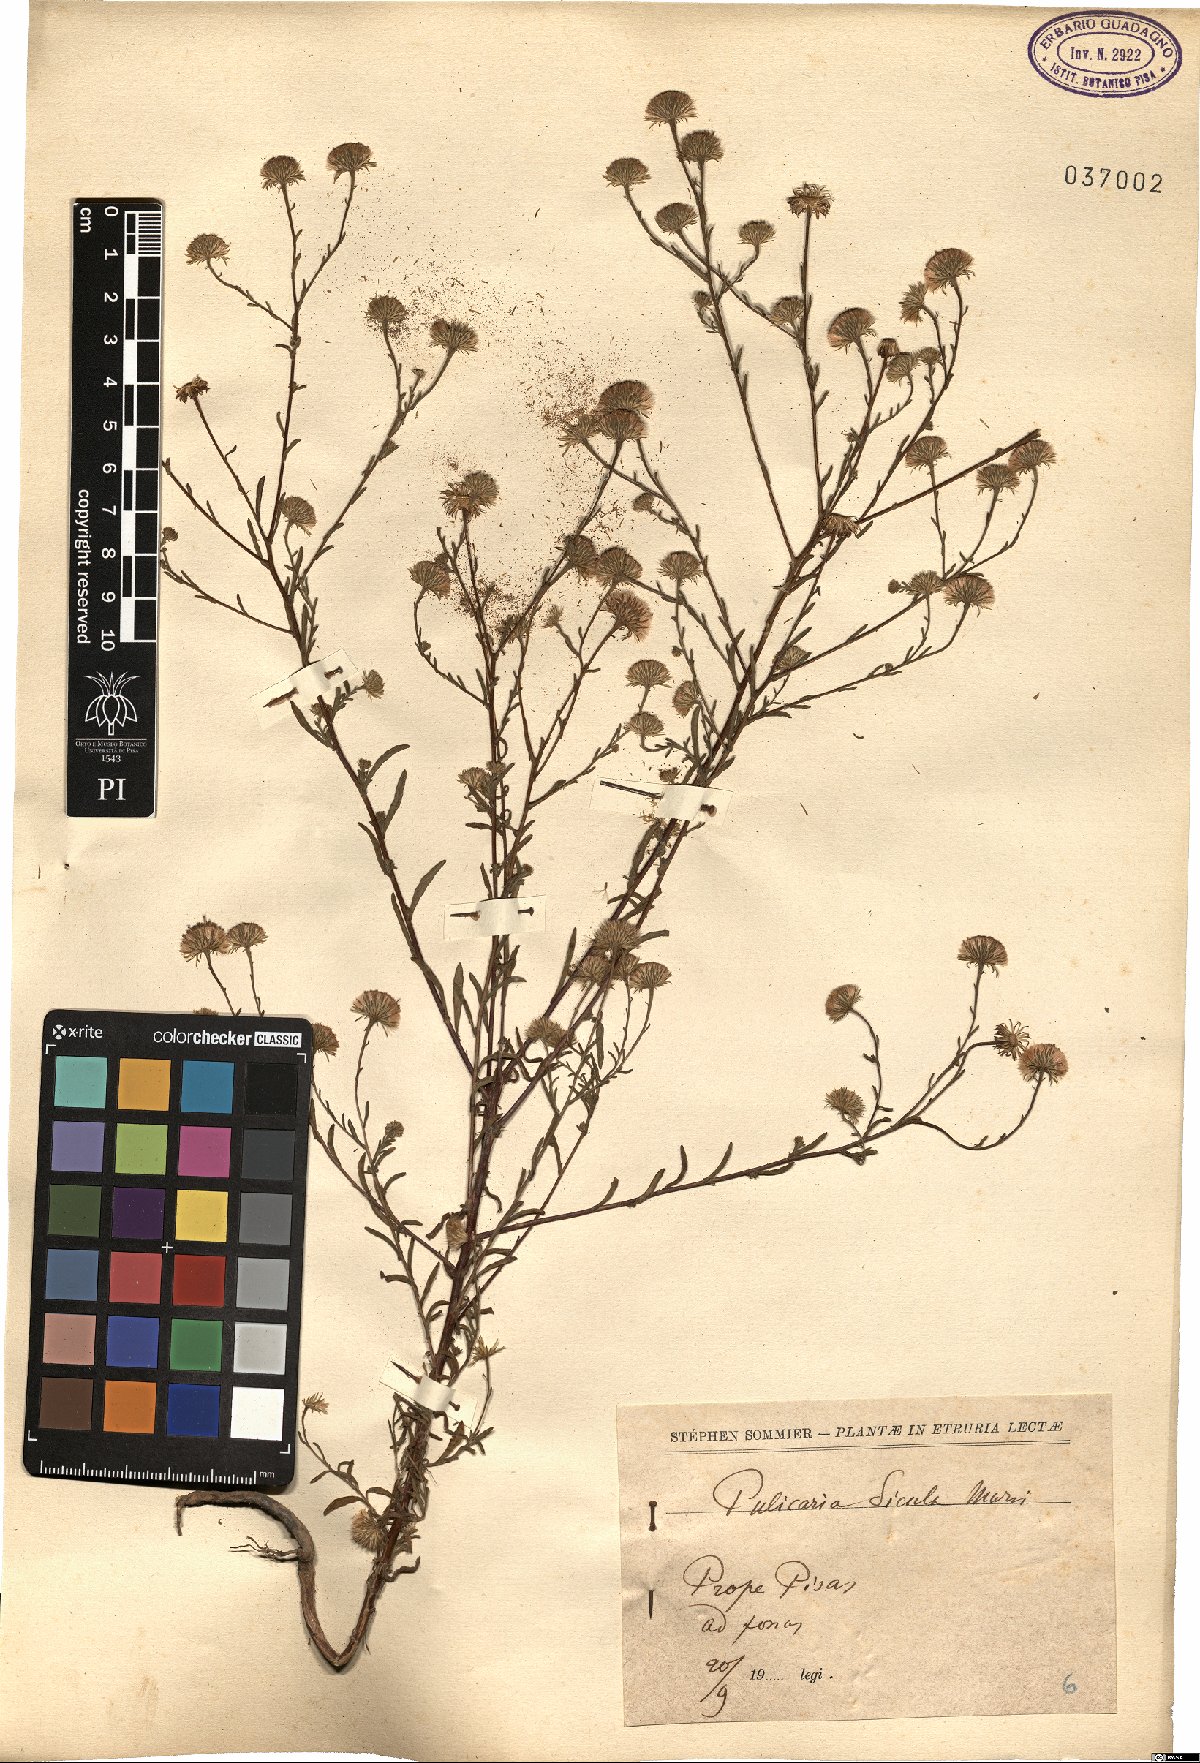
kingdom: Plantae
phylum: Tracheophyta
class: Magnoliopsida
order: Asterales
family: Asteraceae
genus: Pulicaria
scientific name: Pulicaria sicula
